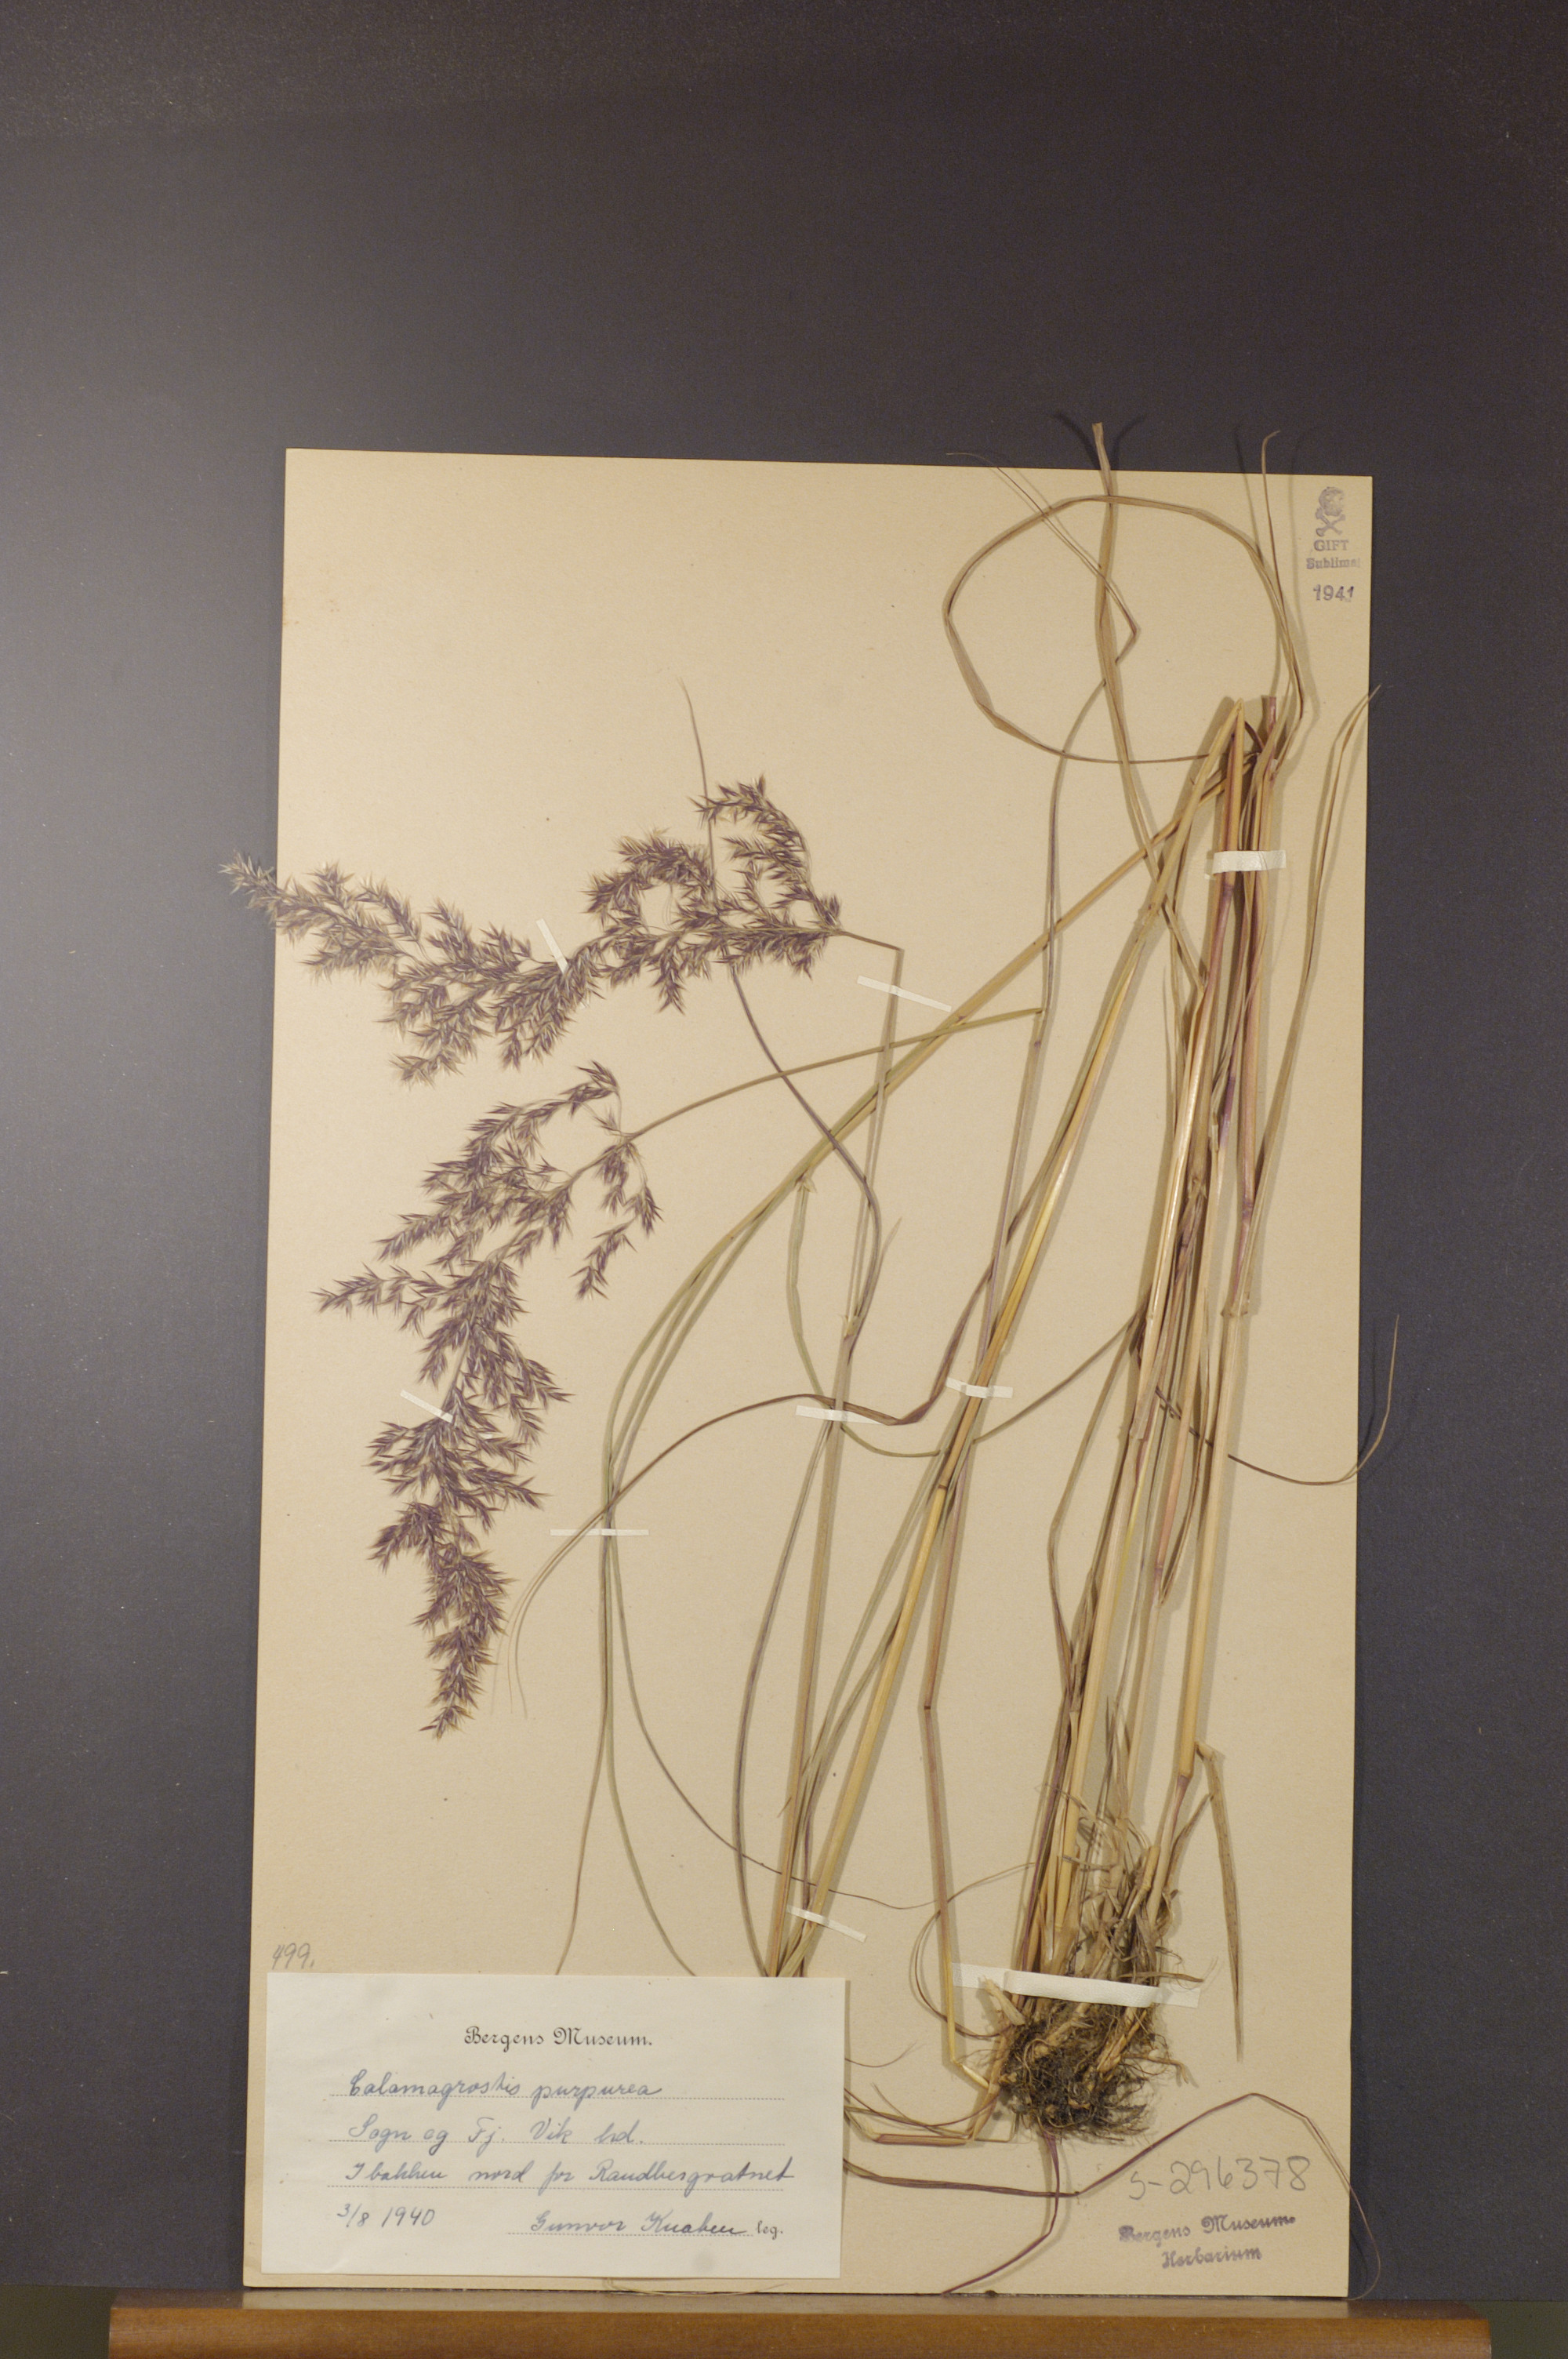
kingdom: Plantae
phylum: Tracheophyta
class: Liliopsida
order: Poales
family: Poaceae
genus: Calamagrostis
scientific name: Calamagrostis purpurea
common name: Scandinavian small-reed
